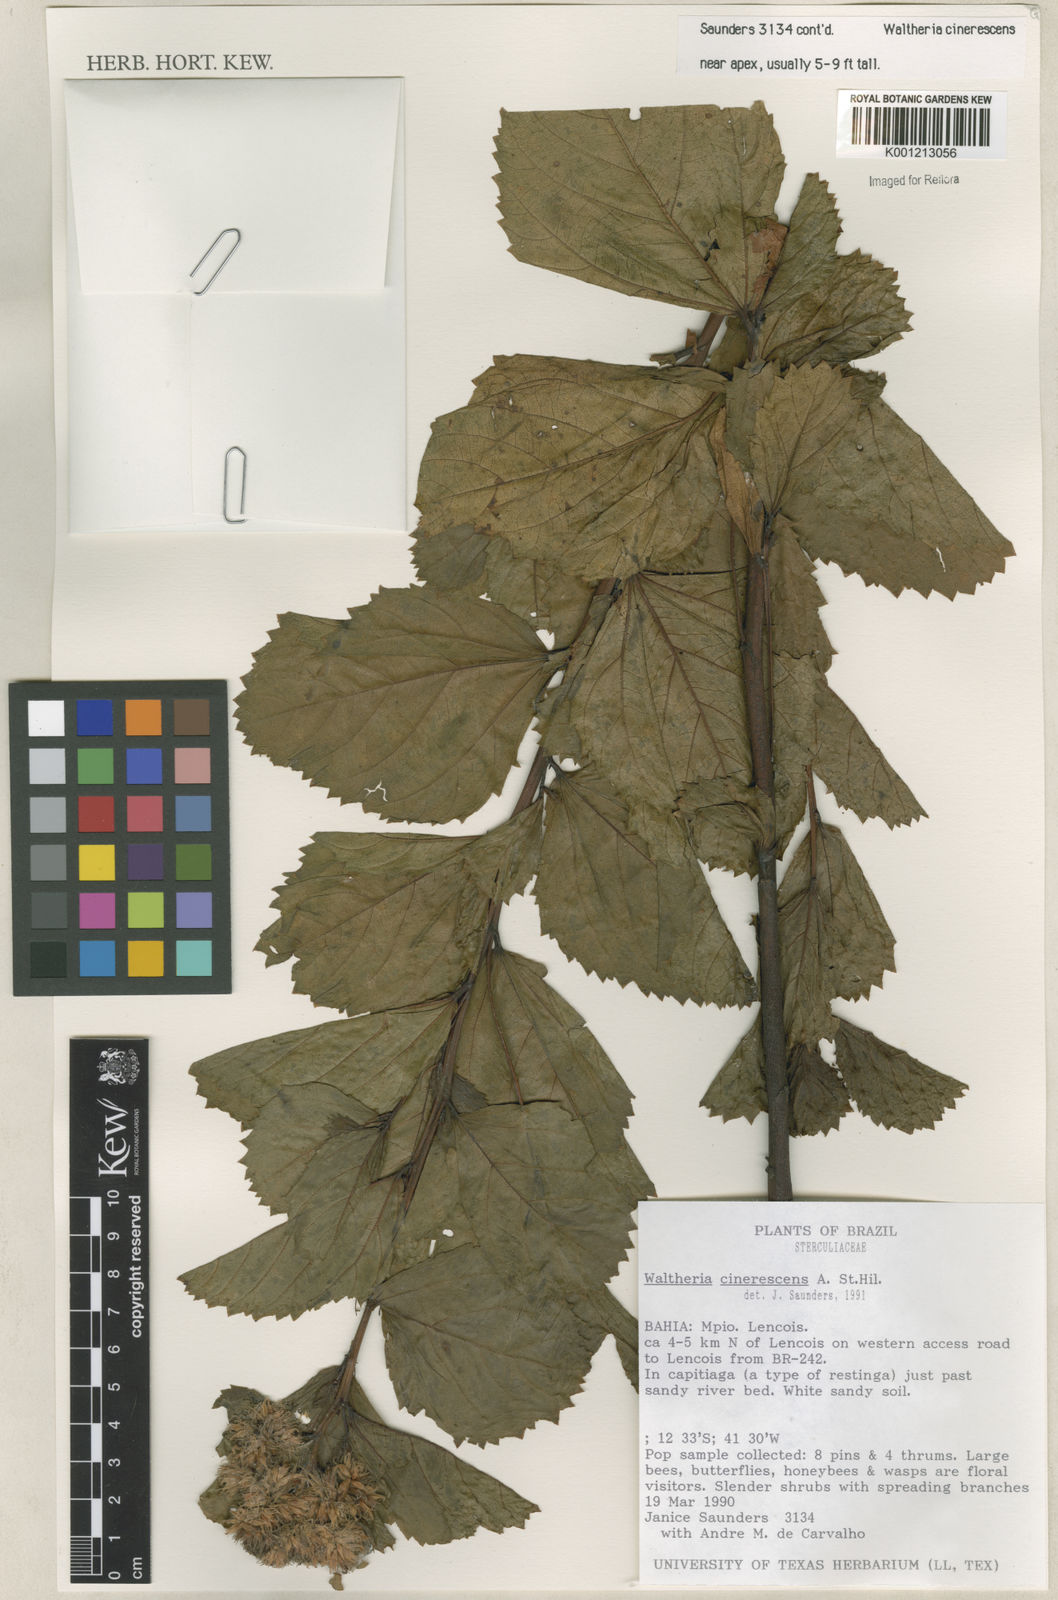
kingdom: Plantae
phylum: Tracheophyta
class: Magnoliopsida
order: Malvales
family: Malvaceae
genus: Waltheria
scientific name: Waltheria cinerescens
